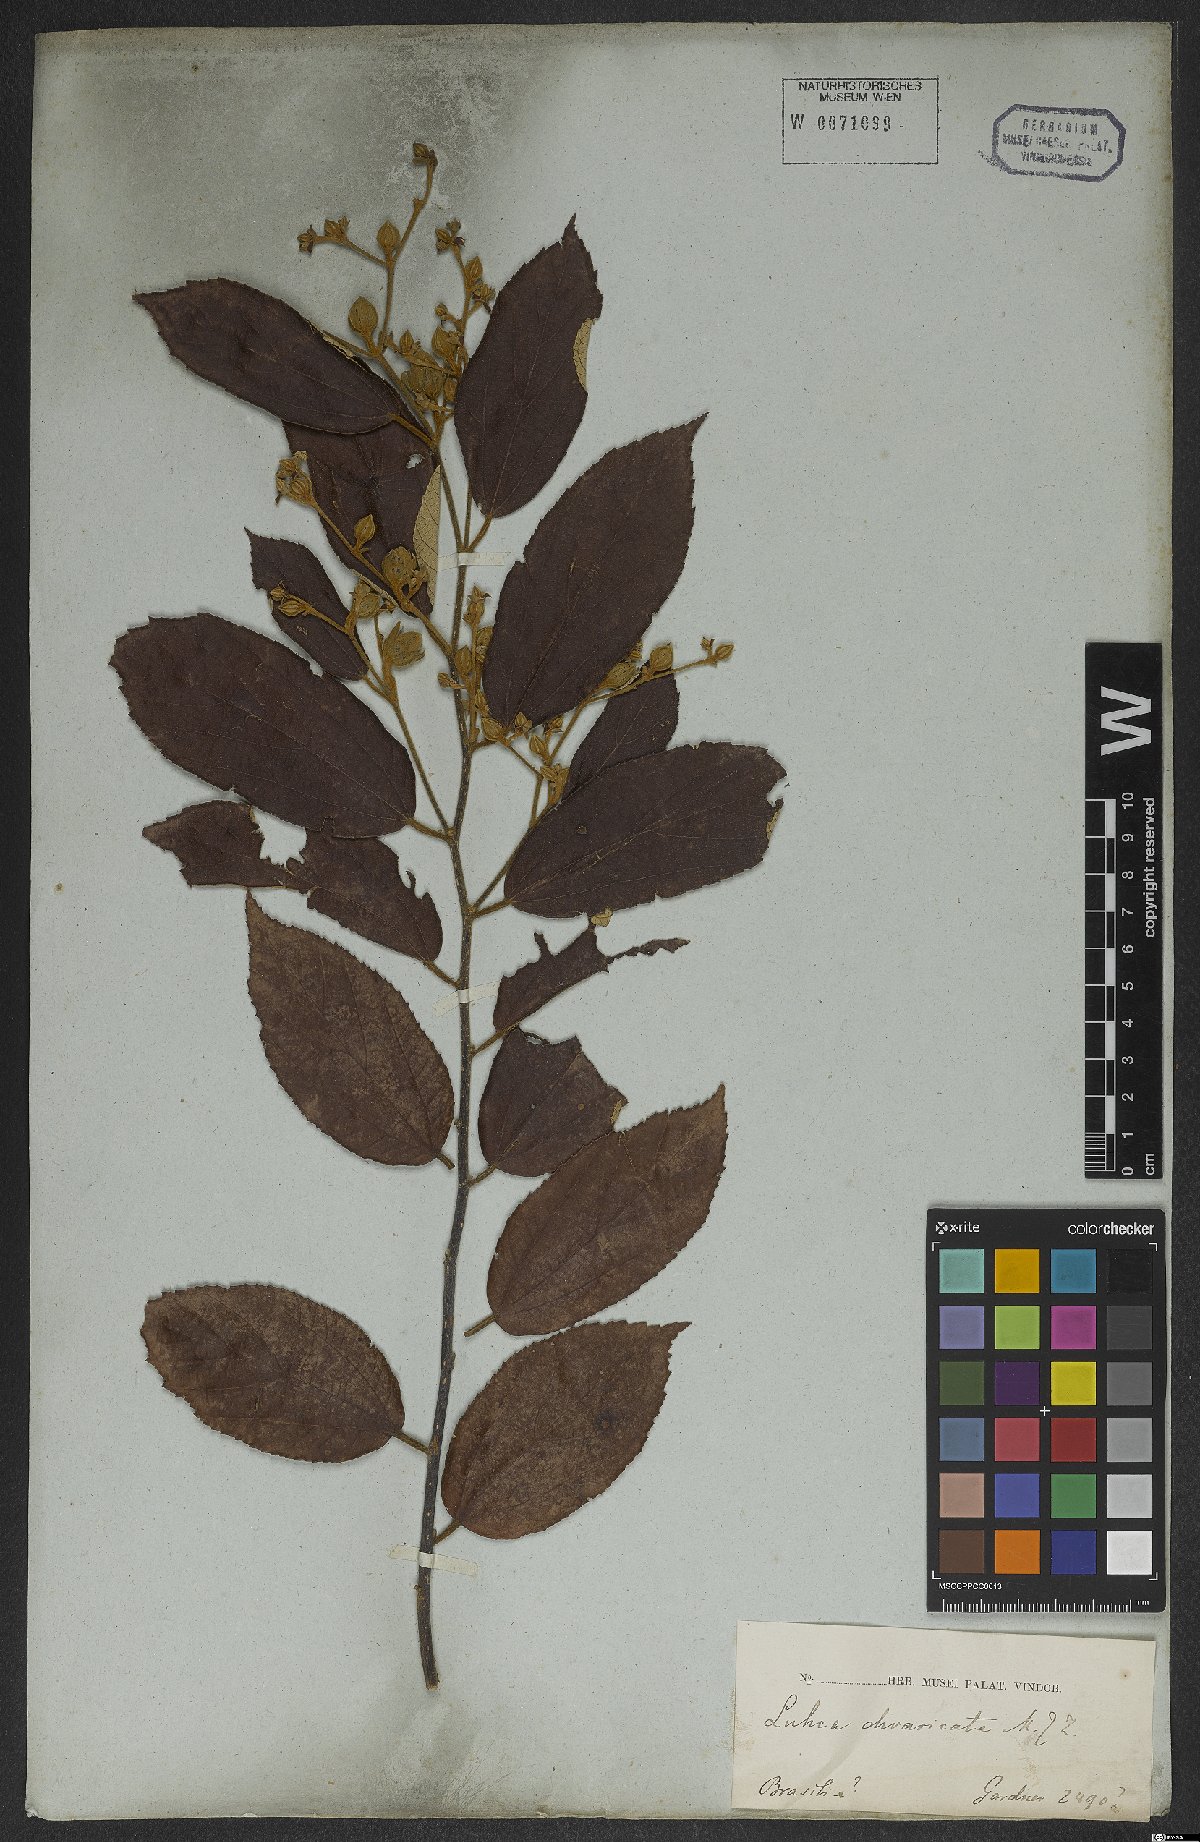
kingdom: Plantae
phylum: Tracheophyta
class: Magnoliopsida
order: Malvales
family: Malvaceae
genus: Luehea
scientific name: Luehea divaricata
